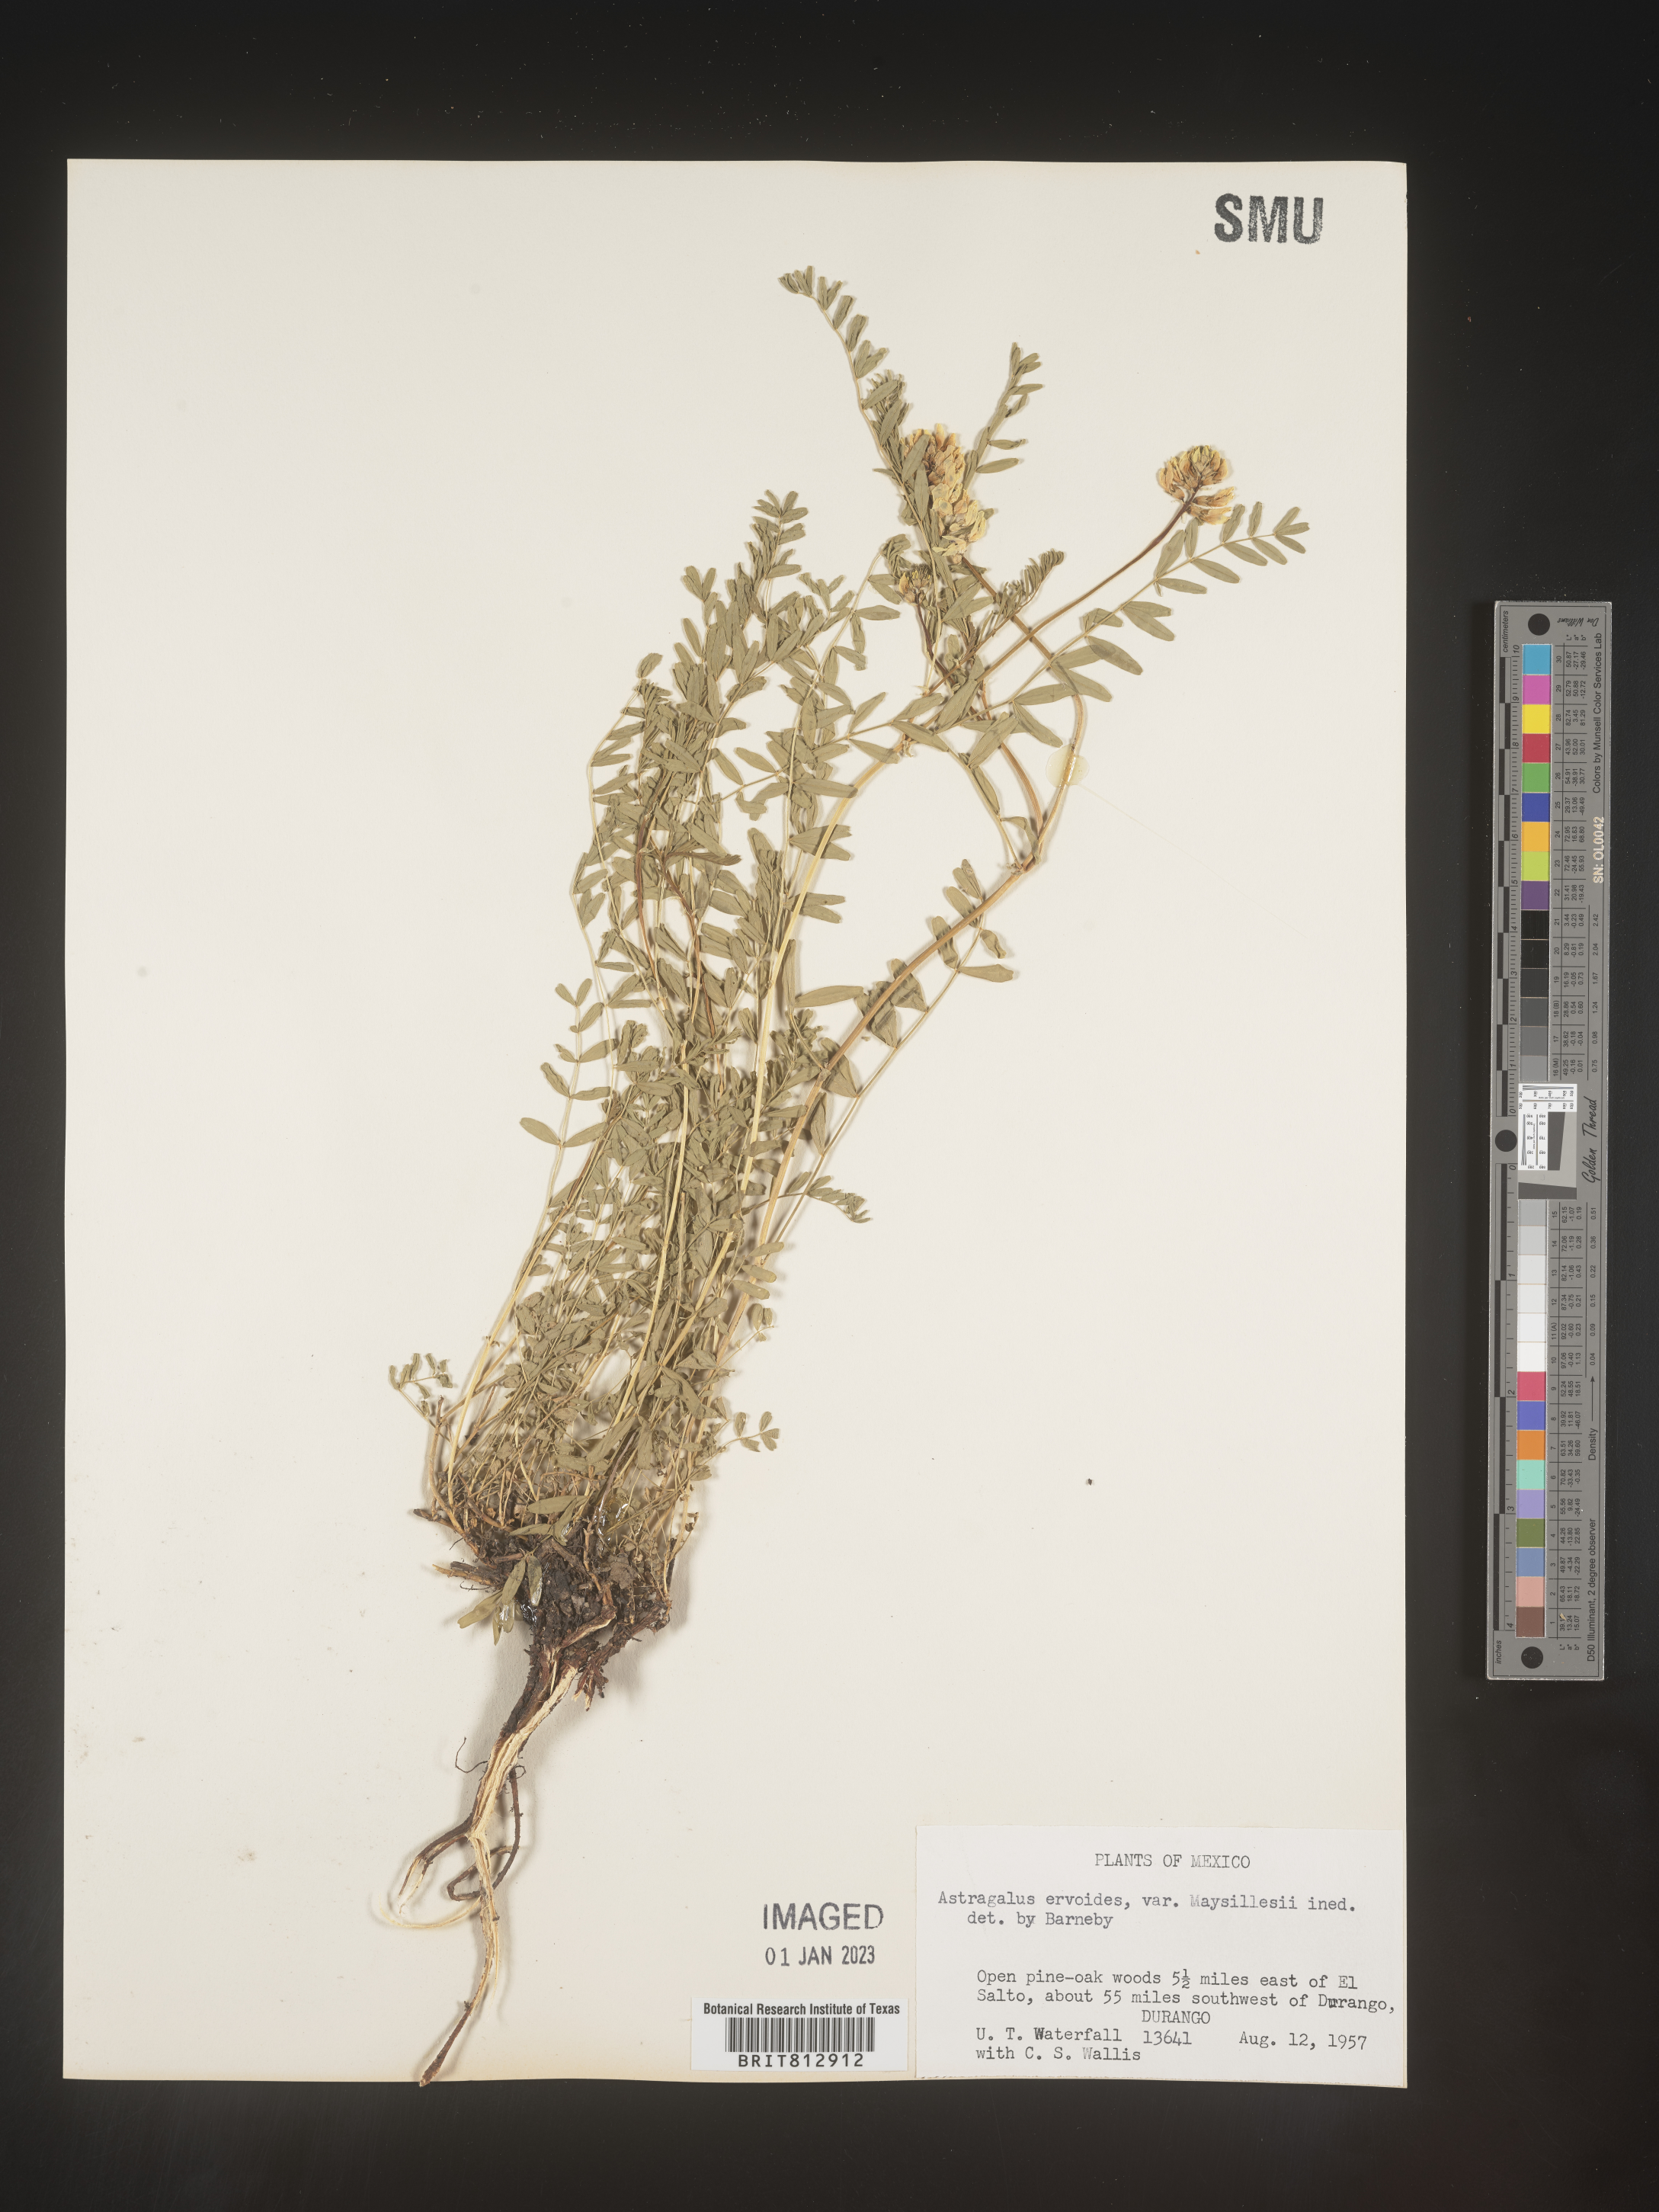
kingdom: Plantae
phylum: Tracheophyta
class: Magnoliopsida
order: Fabales
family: Fabaceae
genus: Astragalus
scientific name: Astragalus
